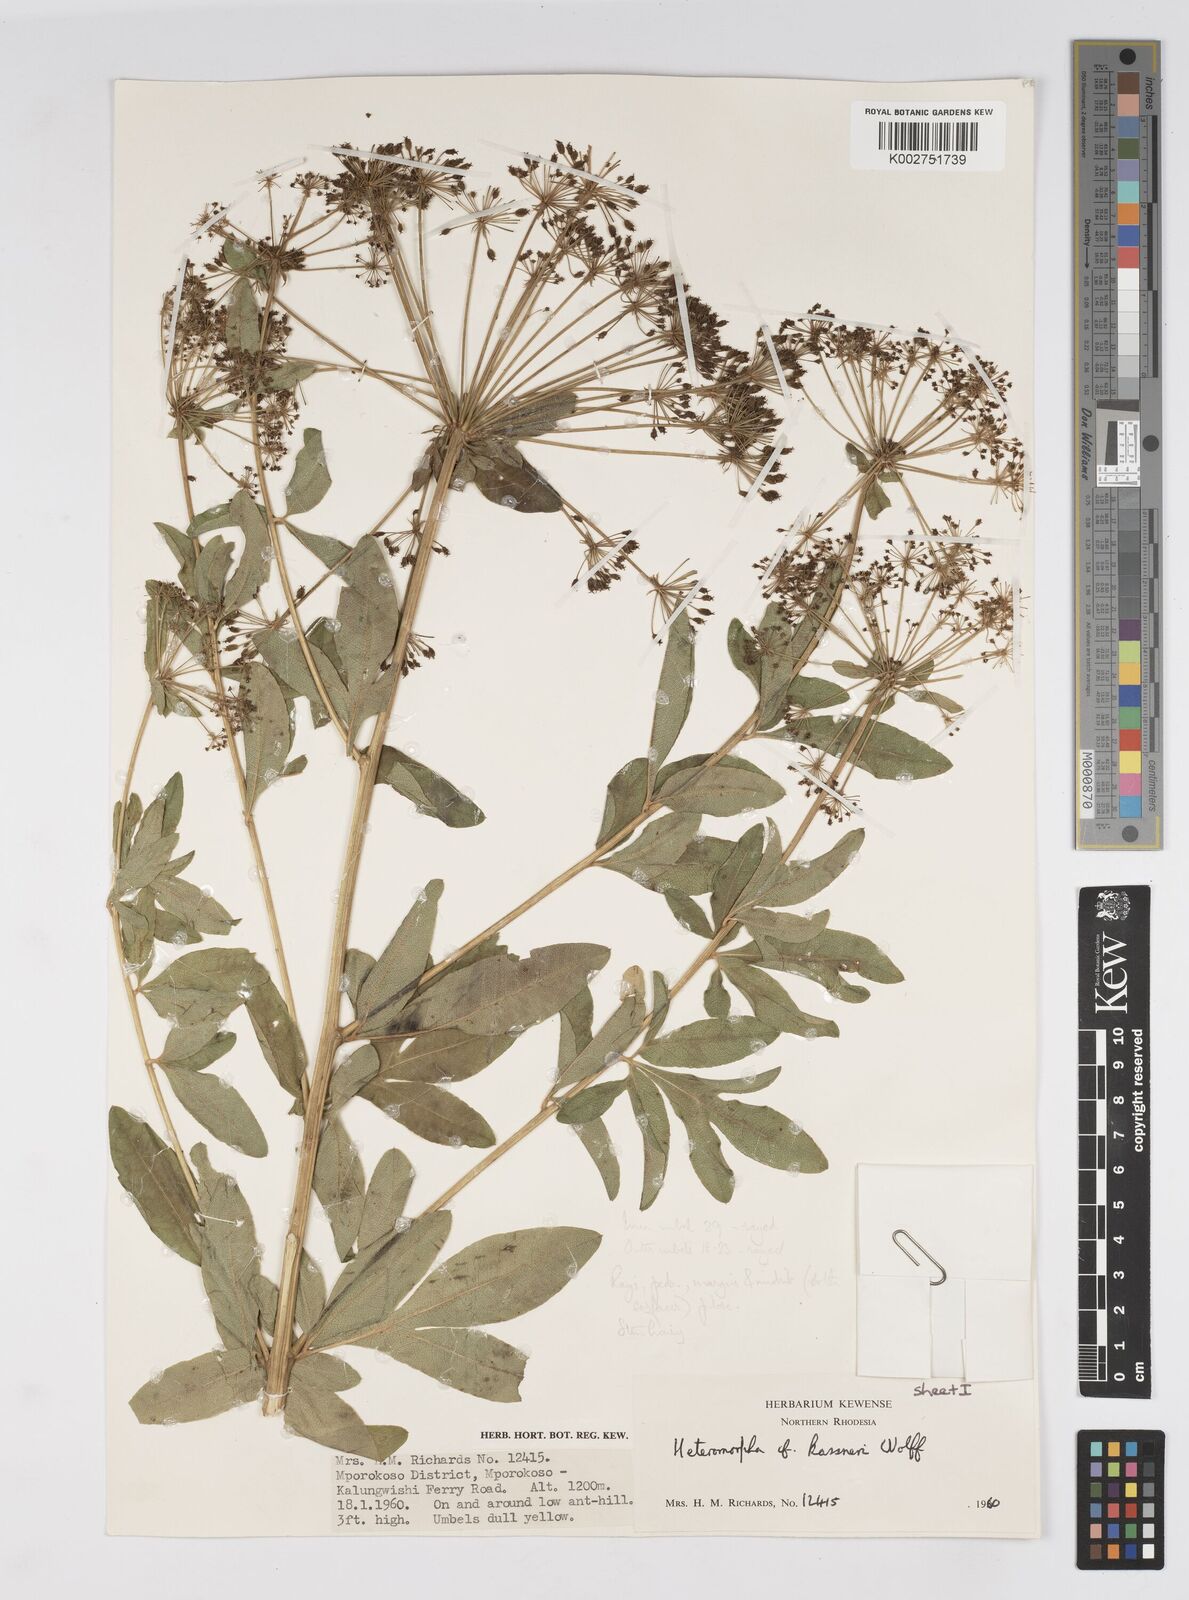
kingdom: Plantae
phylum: Tracheophyta
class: Magnoliopsida
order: Apiales
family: Apiaceae
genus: Heteromorpha
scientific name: Heteromorpha involucrata
